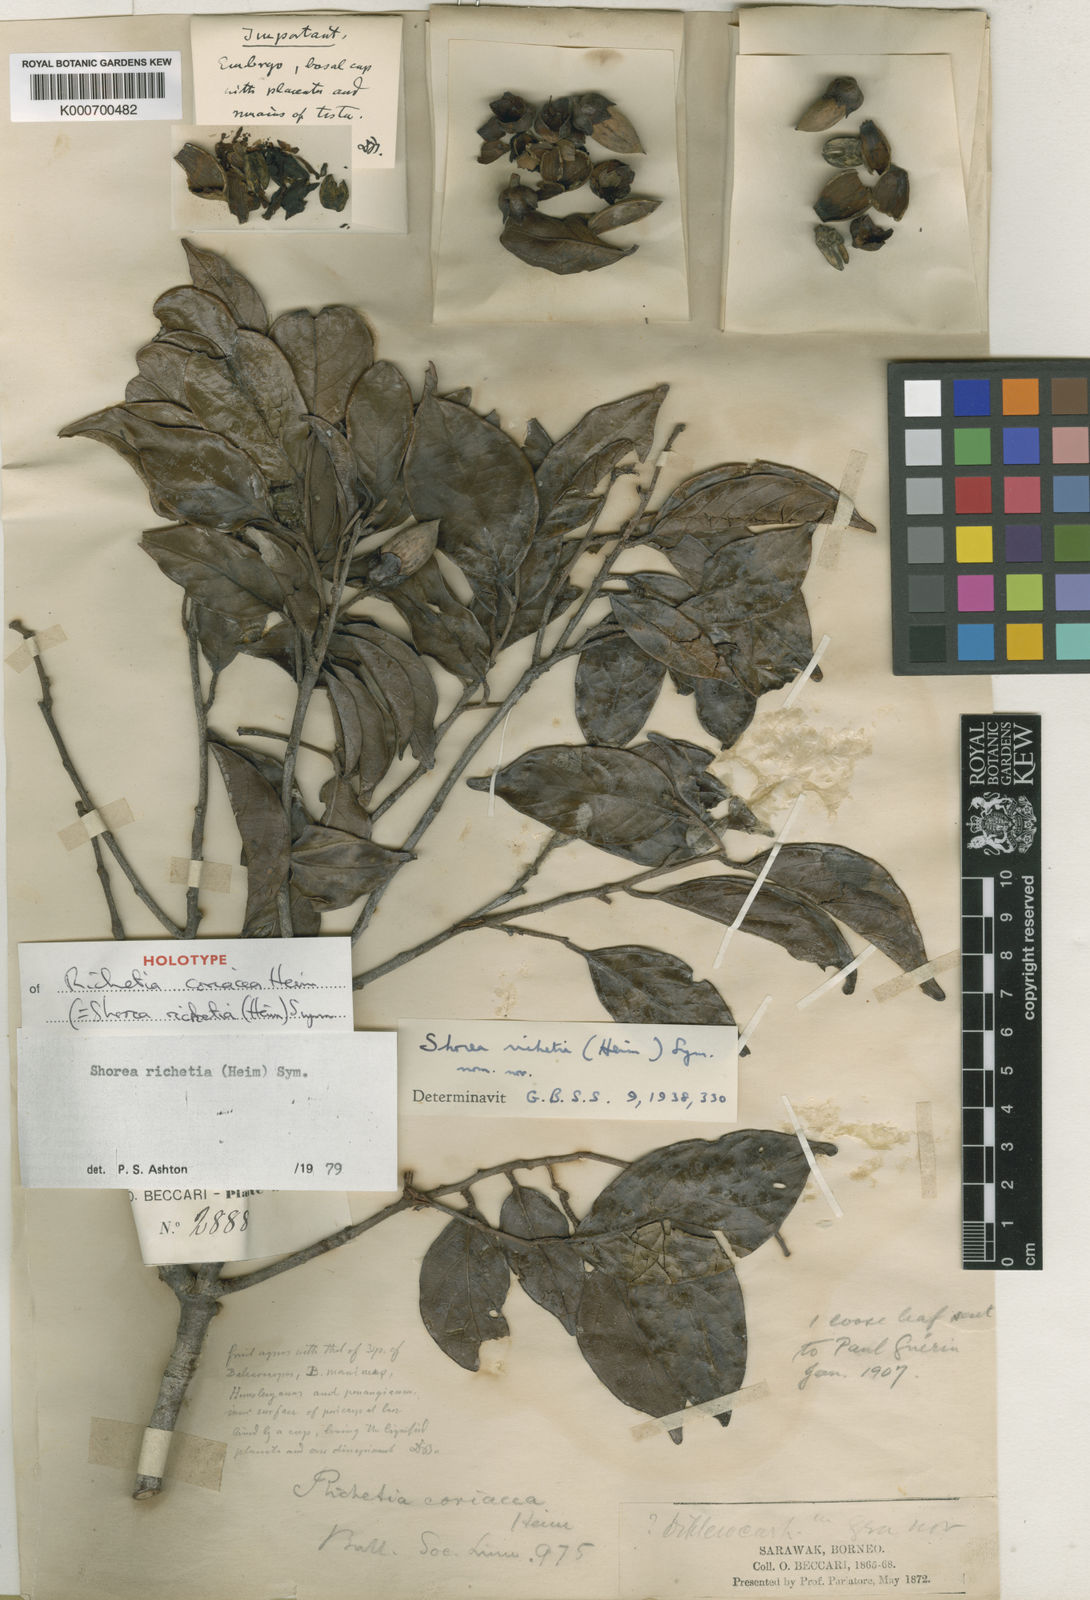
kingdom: Plantae
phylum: Tracheophyta
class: Magnoliopsida
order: Malvales
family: Dipterocarpaceae
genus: Shorea
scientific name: Shorea richetia
